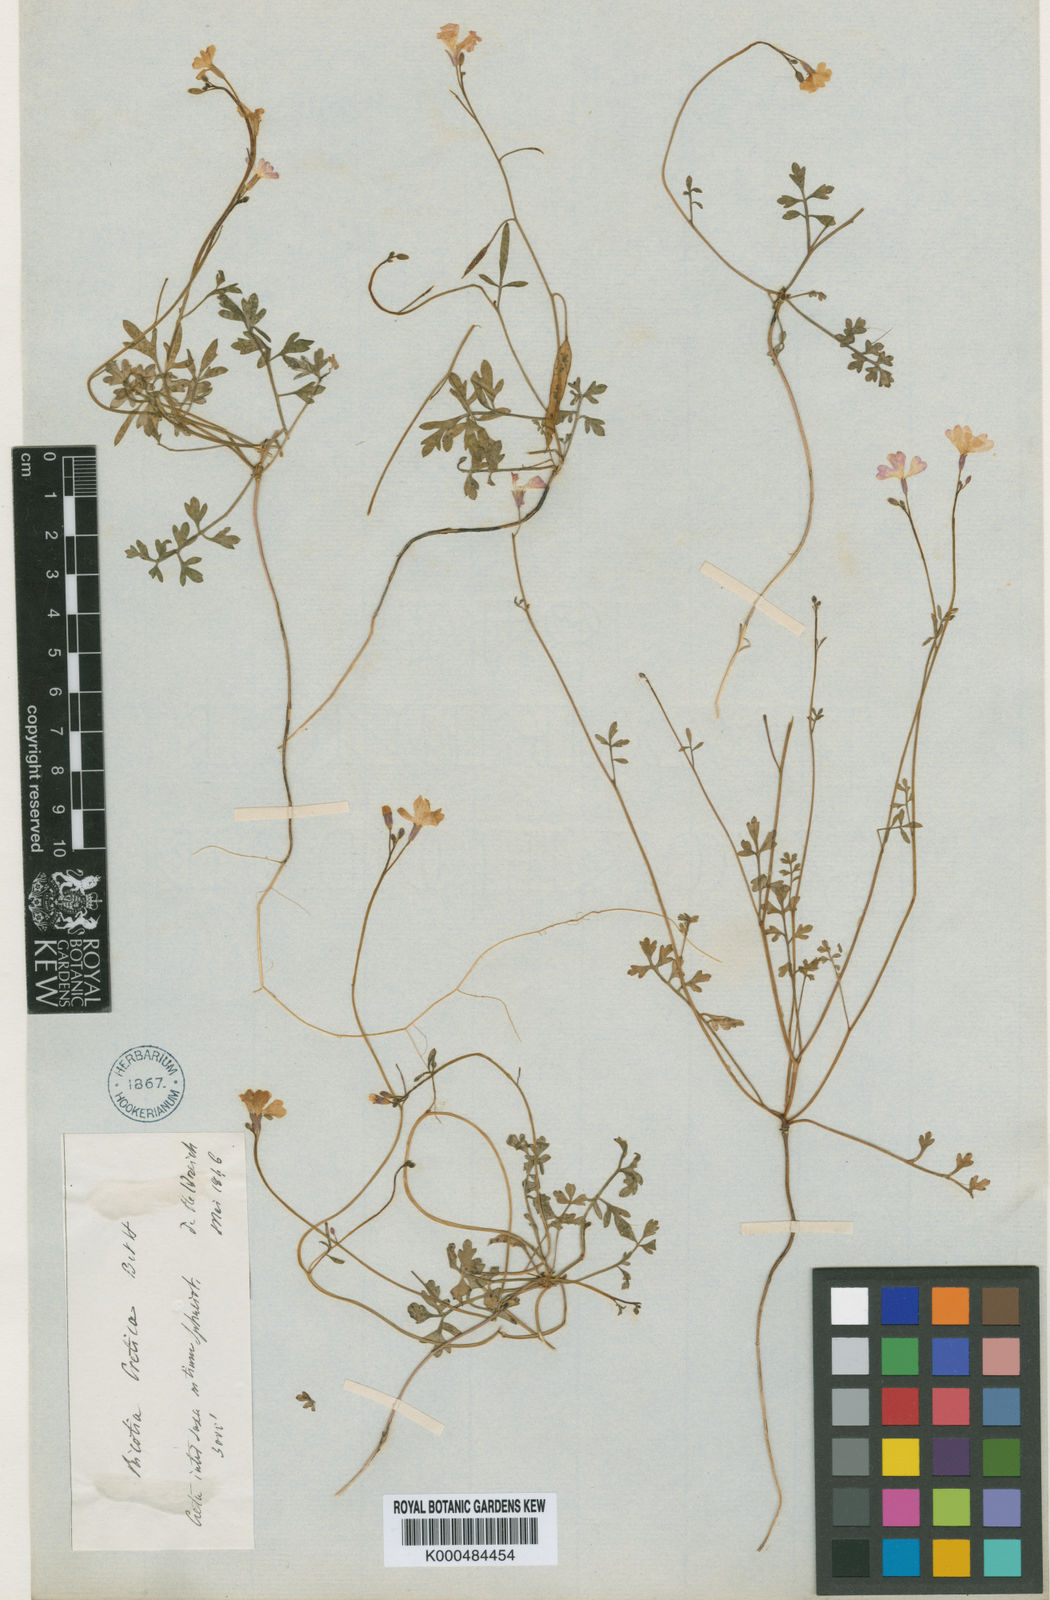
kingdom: Plantae
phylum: Tracheophyta
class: Magnoliopsida
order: Brassicales
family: Brassicaceae
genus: Ricotia
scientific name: Ricotia cretica
